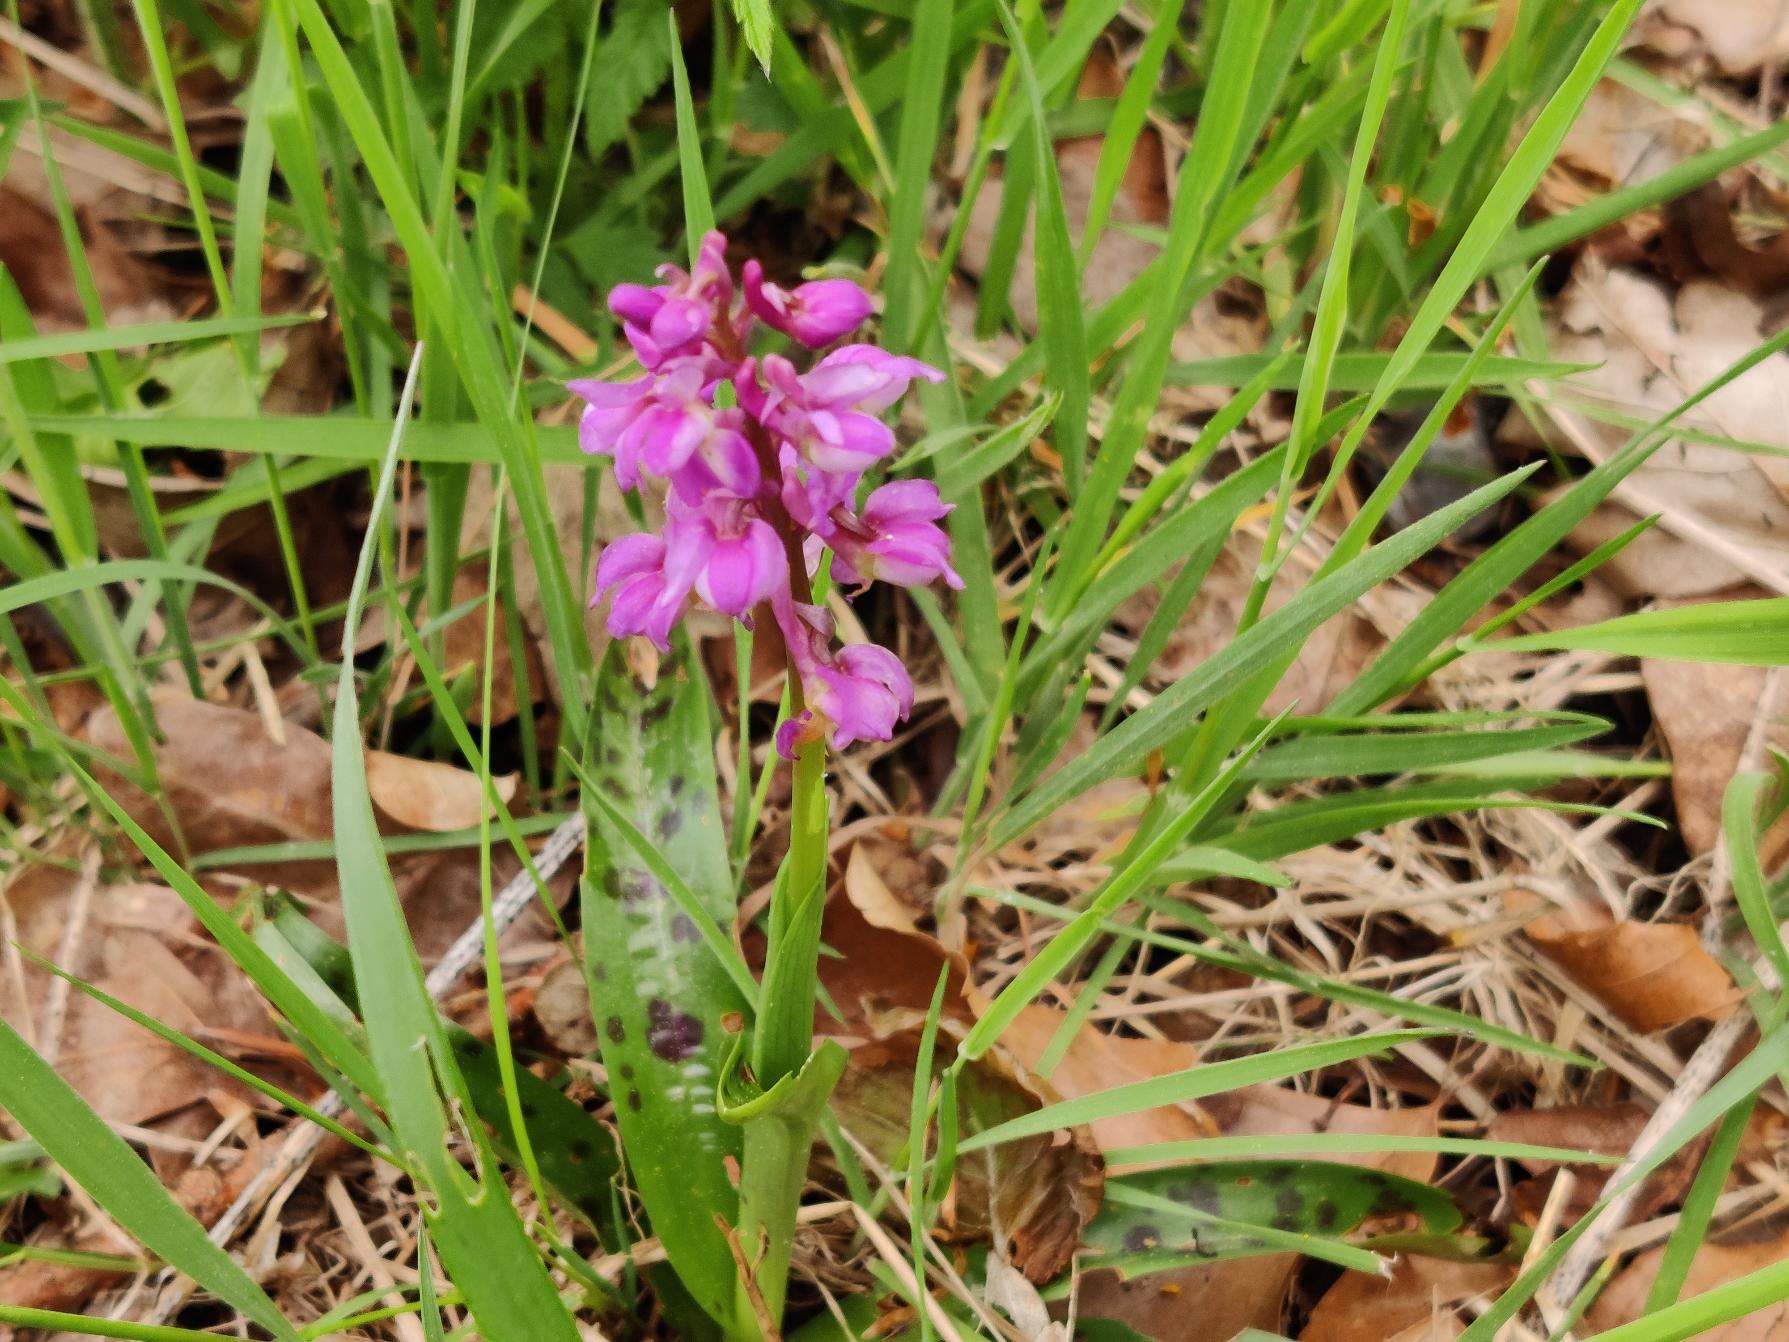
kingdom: Plantae
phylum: Tracheophyta
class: Liliopsida
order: Asparagales
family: Orchidaceae
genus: Orchis
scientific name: Orchis mascula
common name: Tyndakset gøgeurt
